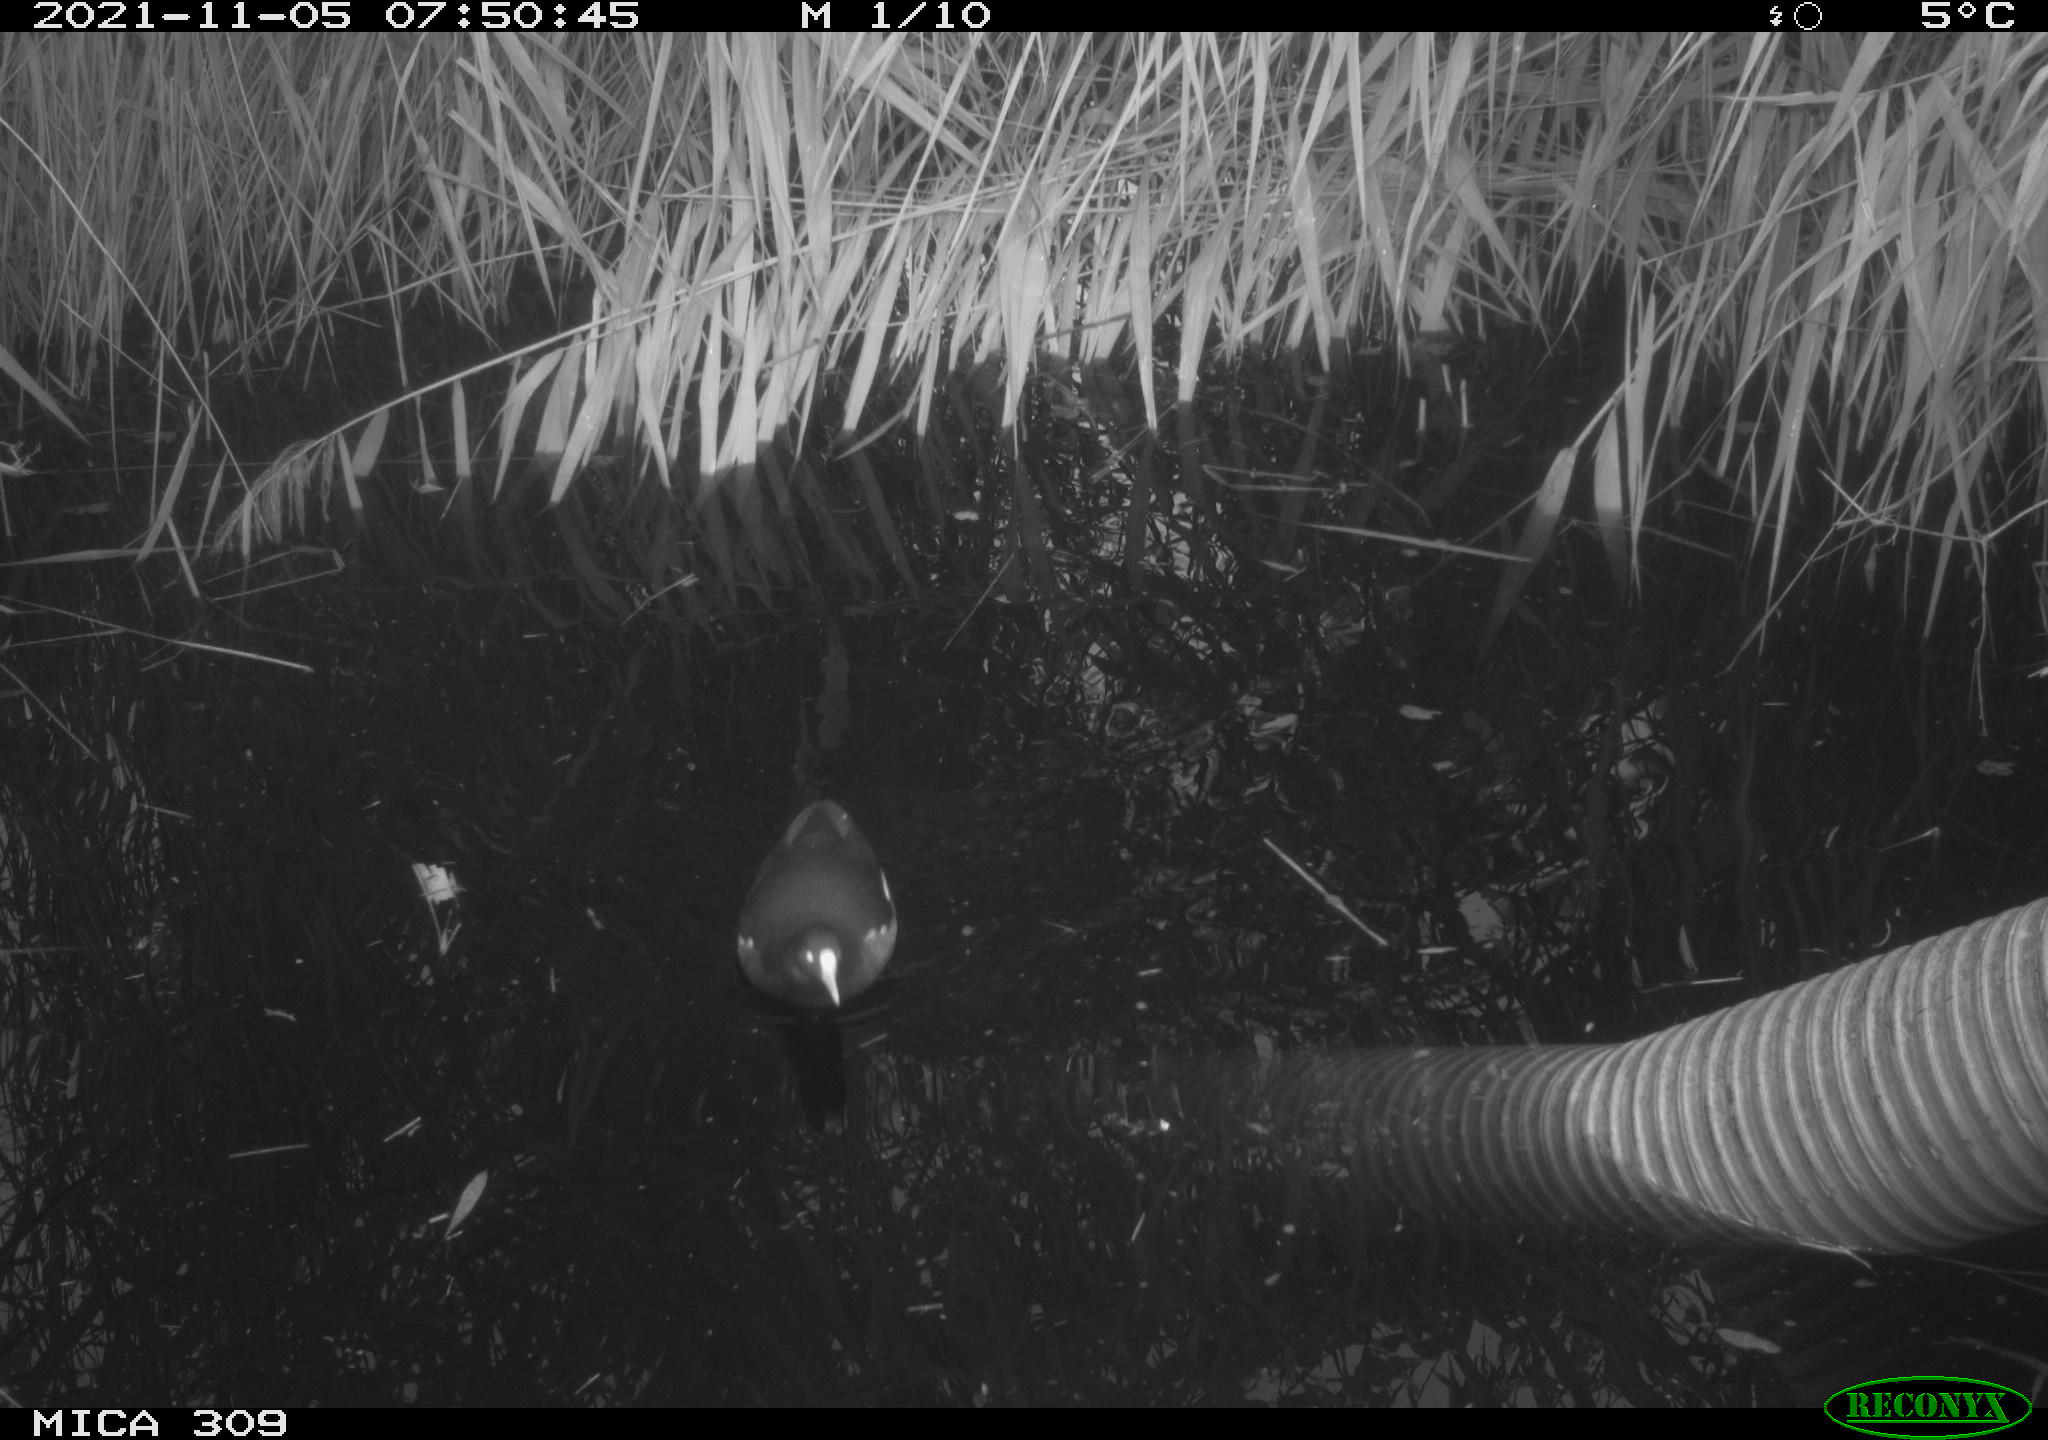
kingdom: Animalia
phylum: Chordata
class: Aves
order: Gruiformes
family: Rallidae
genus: Gallinula
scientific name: Gallinula chloropus
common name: Common moorhen
